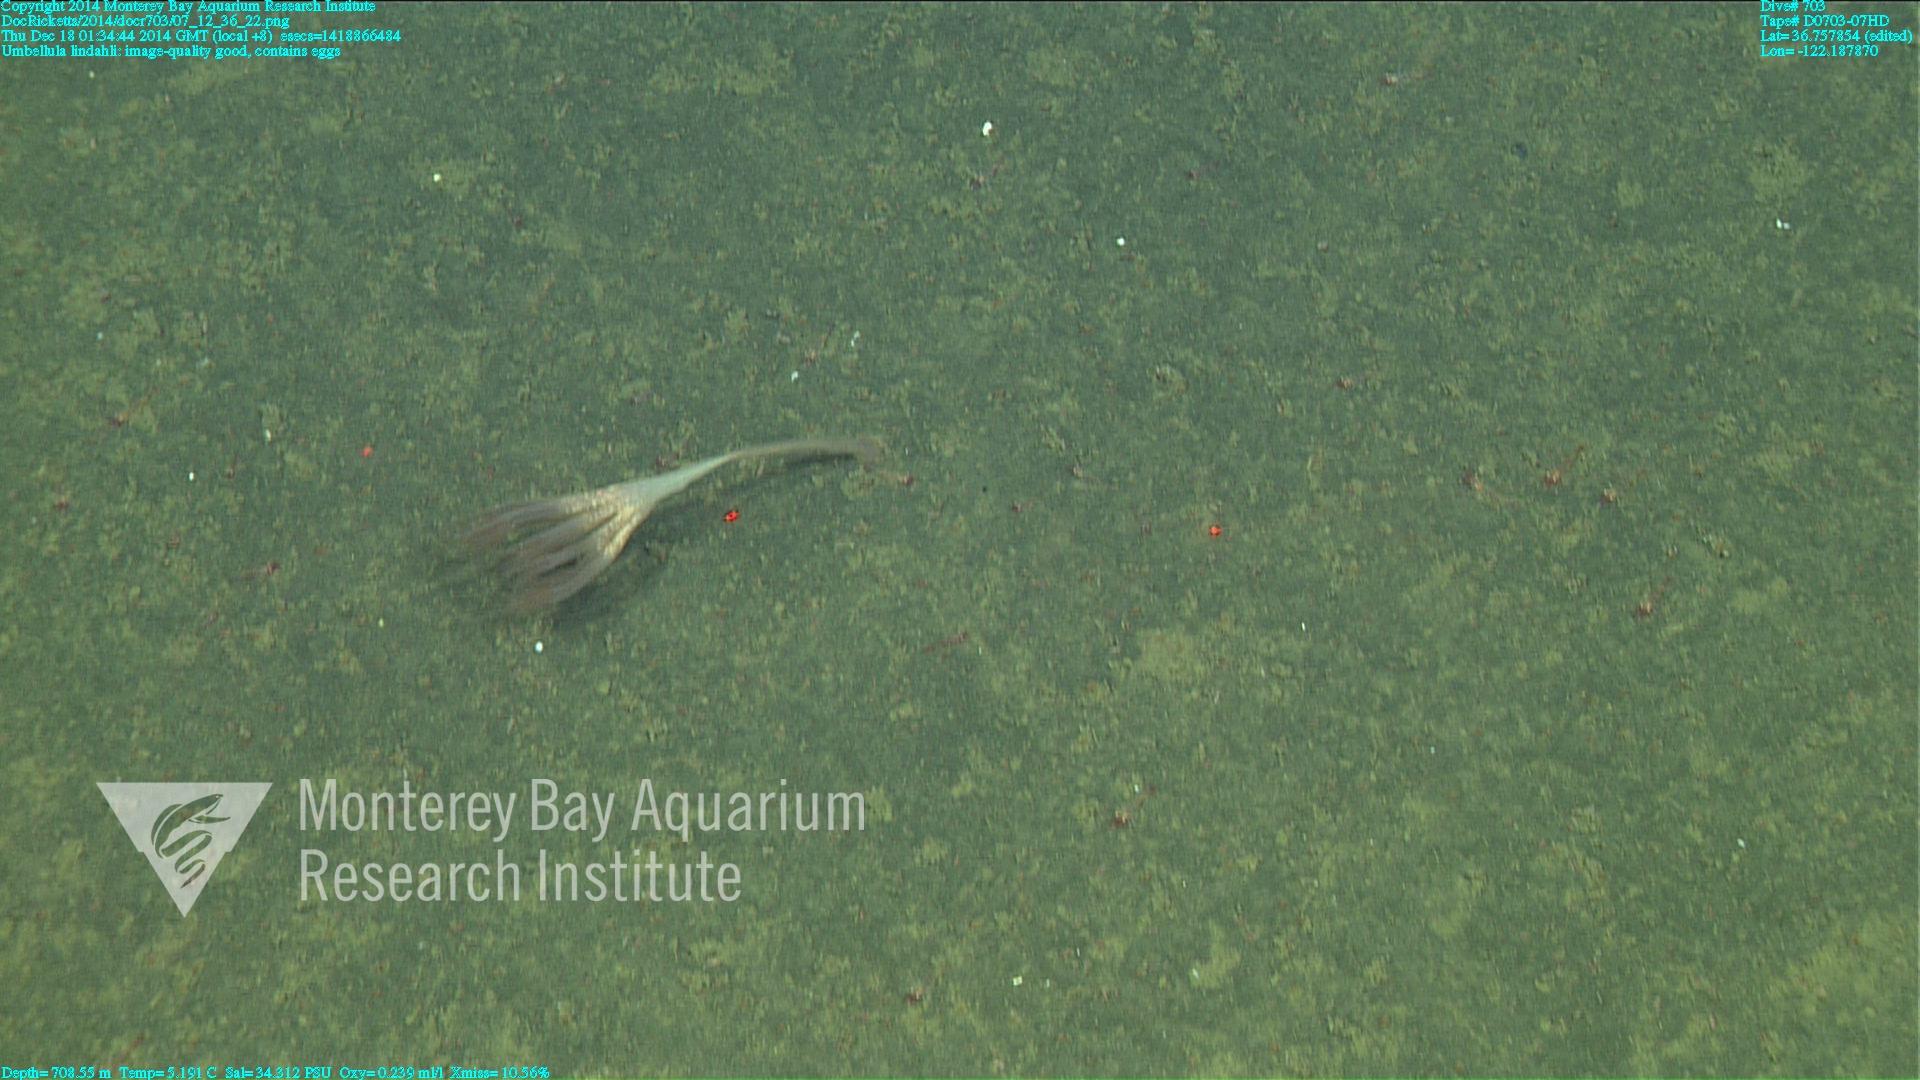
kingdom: Animalia
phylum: Cnidaria
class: Anthozoa
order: Scleralcyonacea
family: Umbellulidae
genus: Umbellula
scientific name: Umbellula lindahli
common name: Lindahl's droopy sea pen
